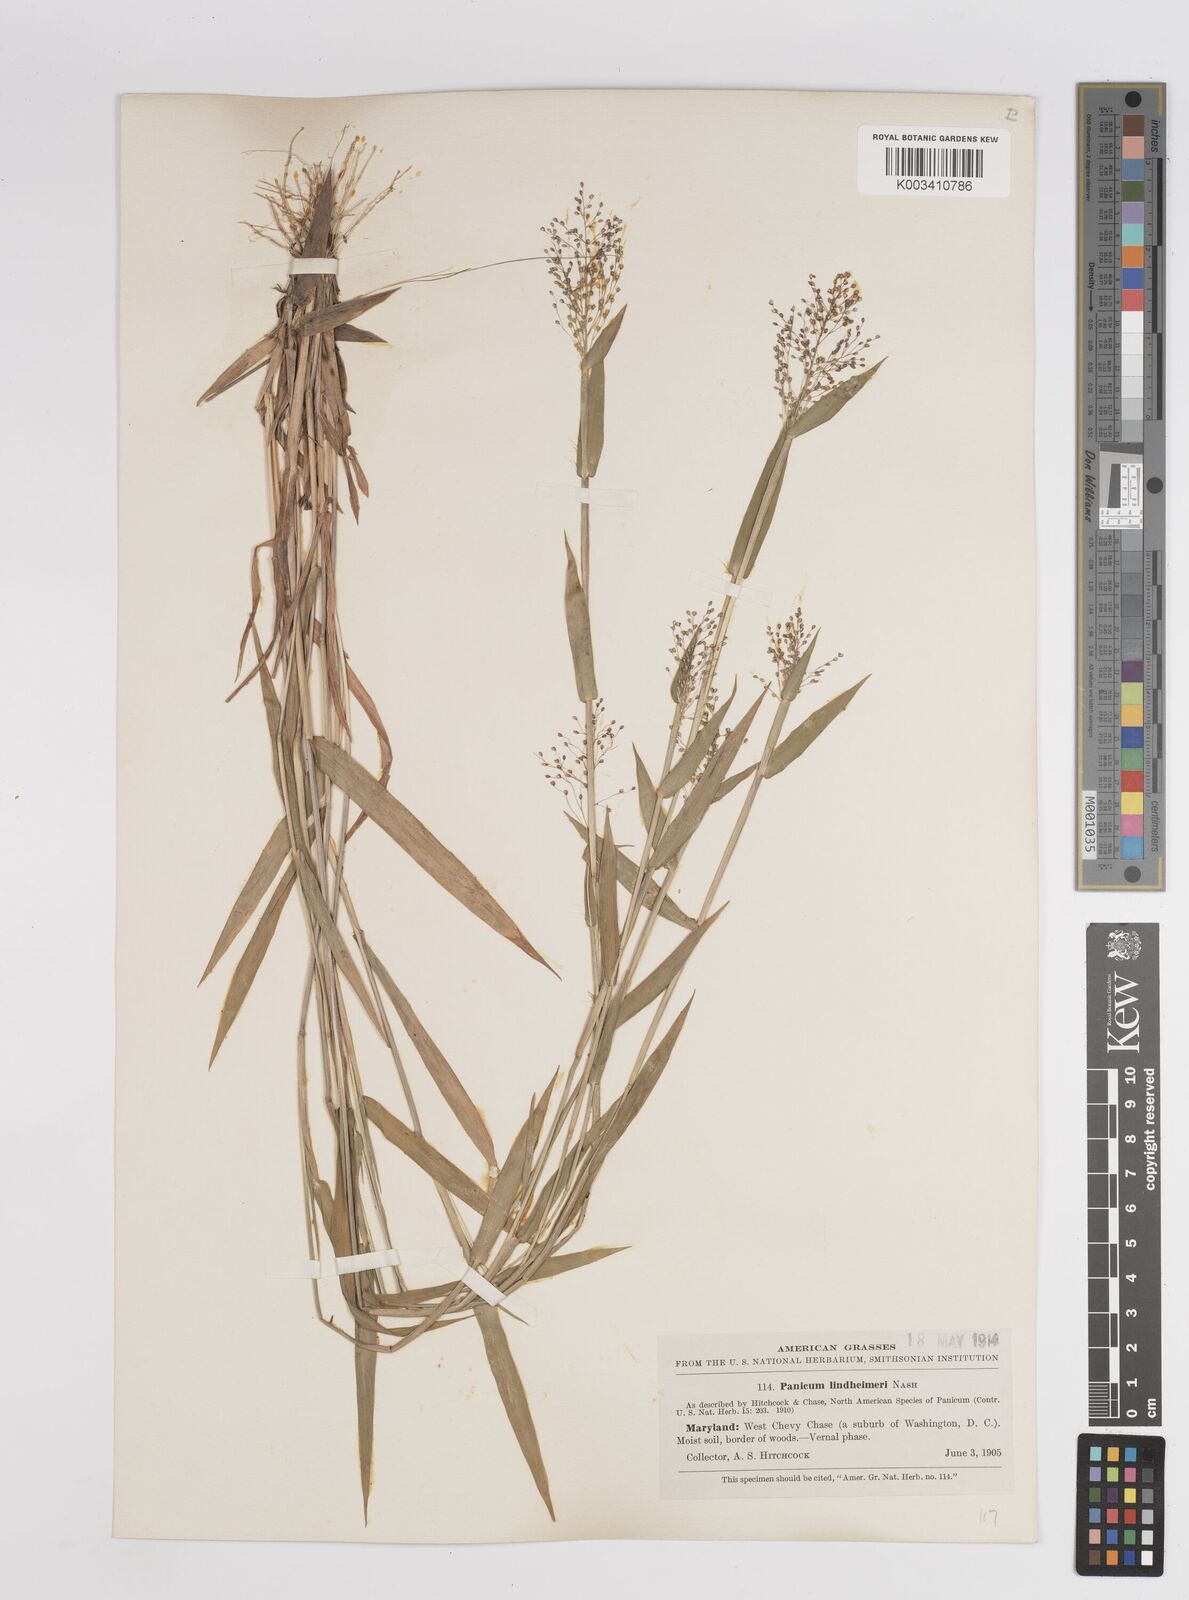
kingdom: Plantae
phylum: Tracheophyta
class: Liliopsida
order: Poales
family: Poaceae
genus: Dichanthelium
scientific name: Dichanthelium acuminatum
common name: Hairy panic grass
